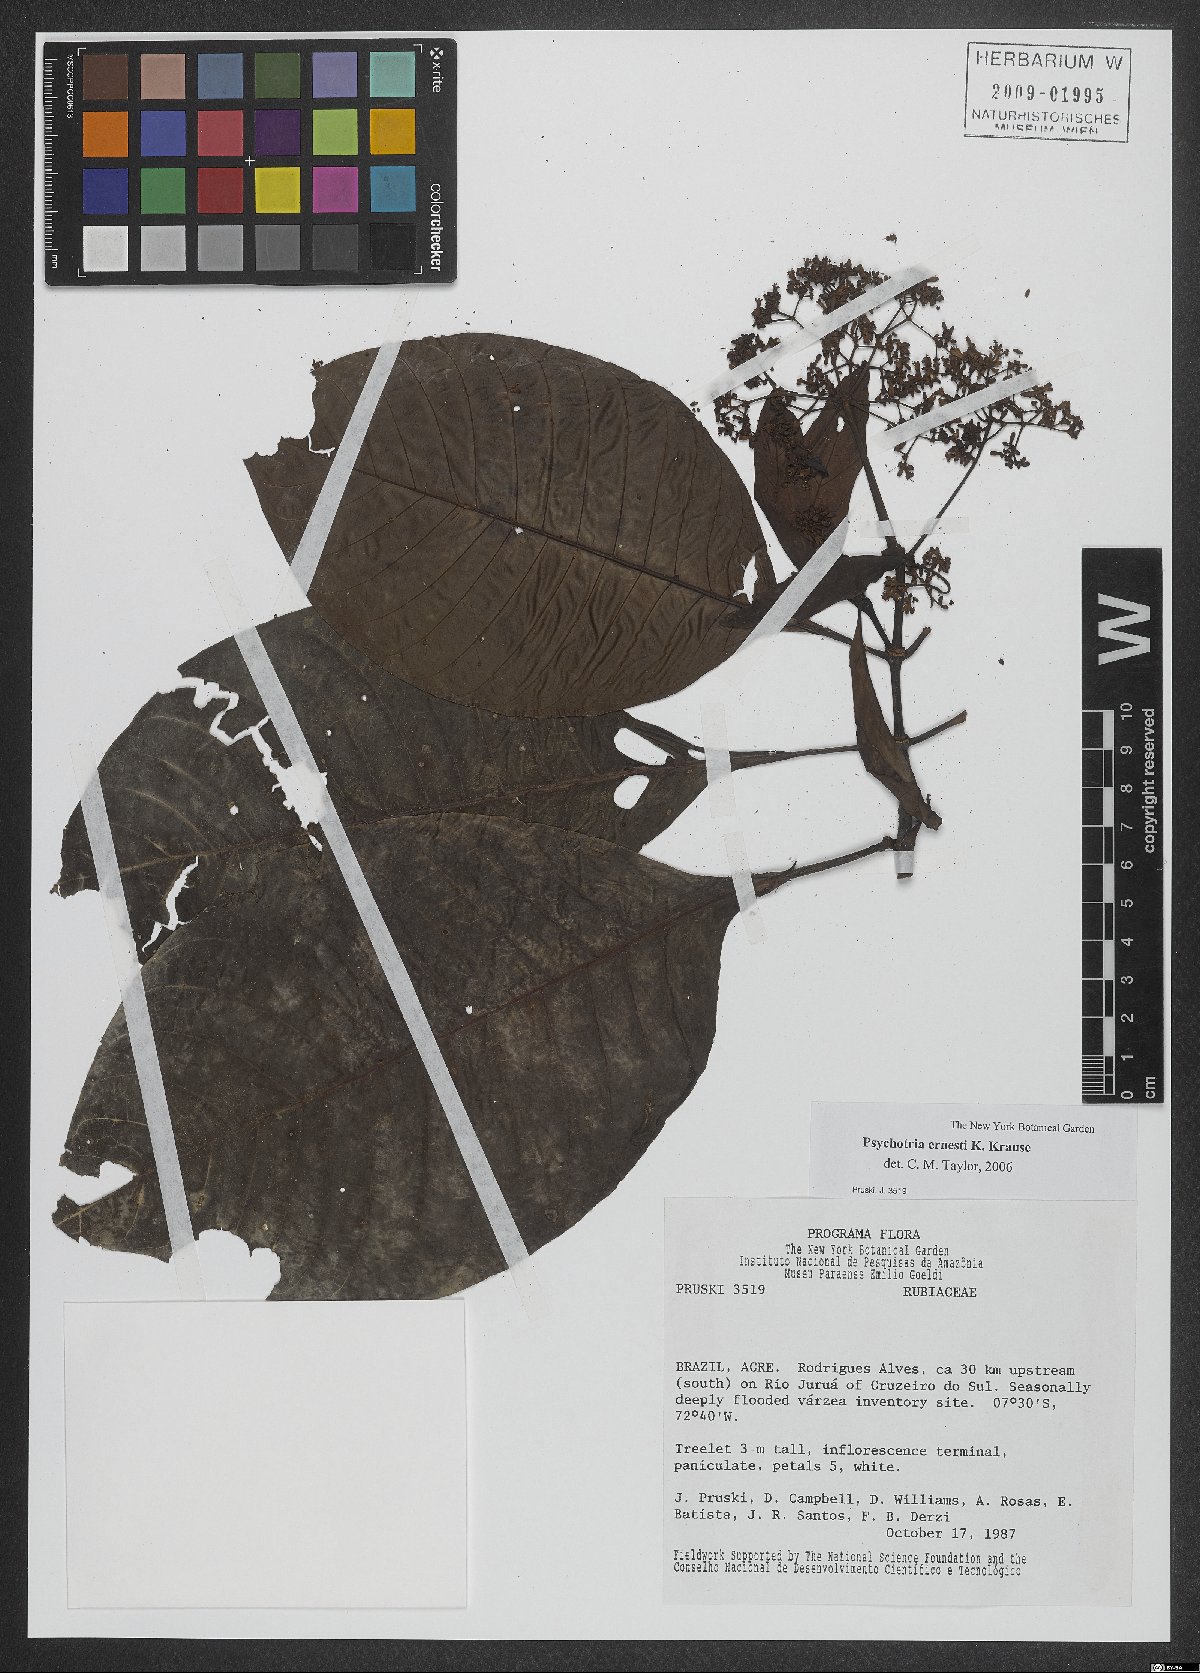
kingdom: Plantae
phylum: Tracheophyta
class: Magnoliopsida
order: Gentianales
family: Rubiaceae
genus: Psychotria
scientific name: Psychotria guianensis
